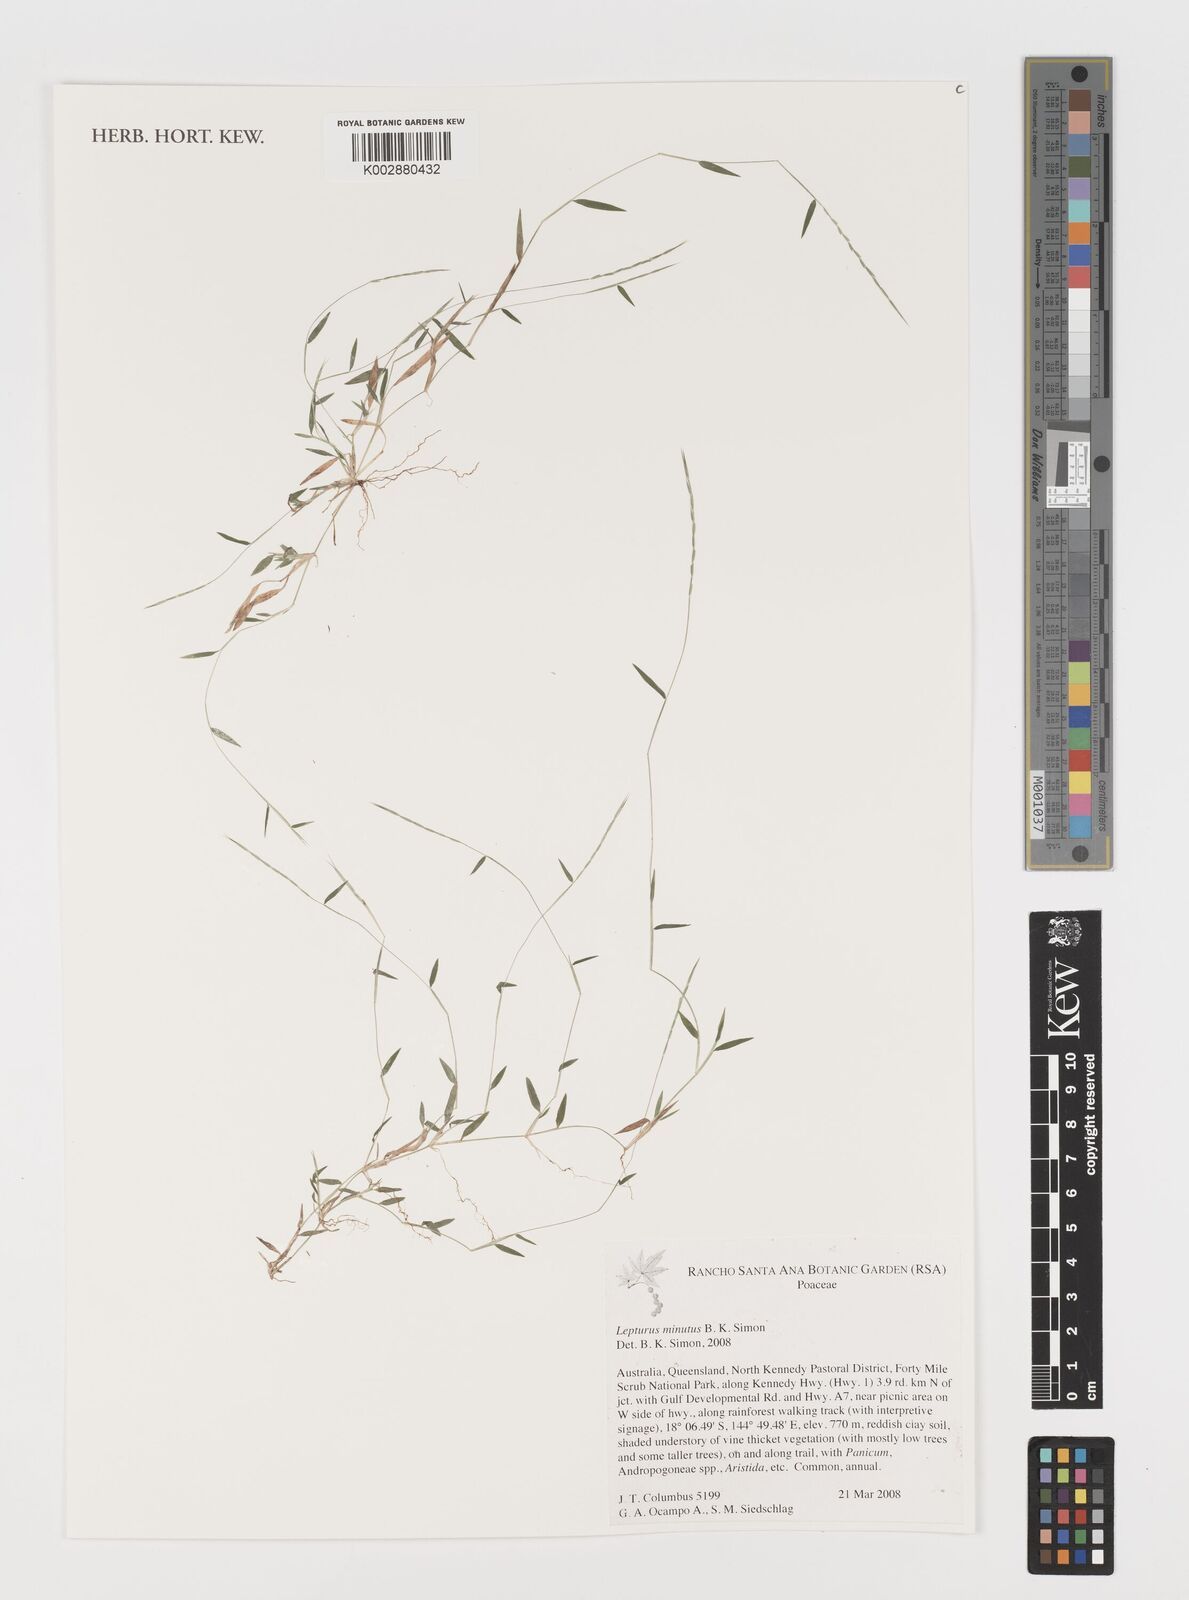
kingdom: Plantae
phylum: Tracheophyta
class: Liliopsida
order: Poales
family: Poaceae
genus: Lepturus
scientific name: Lepturus minutus
